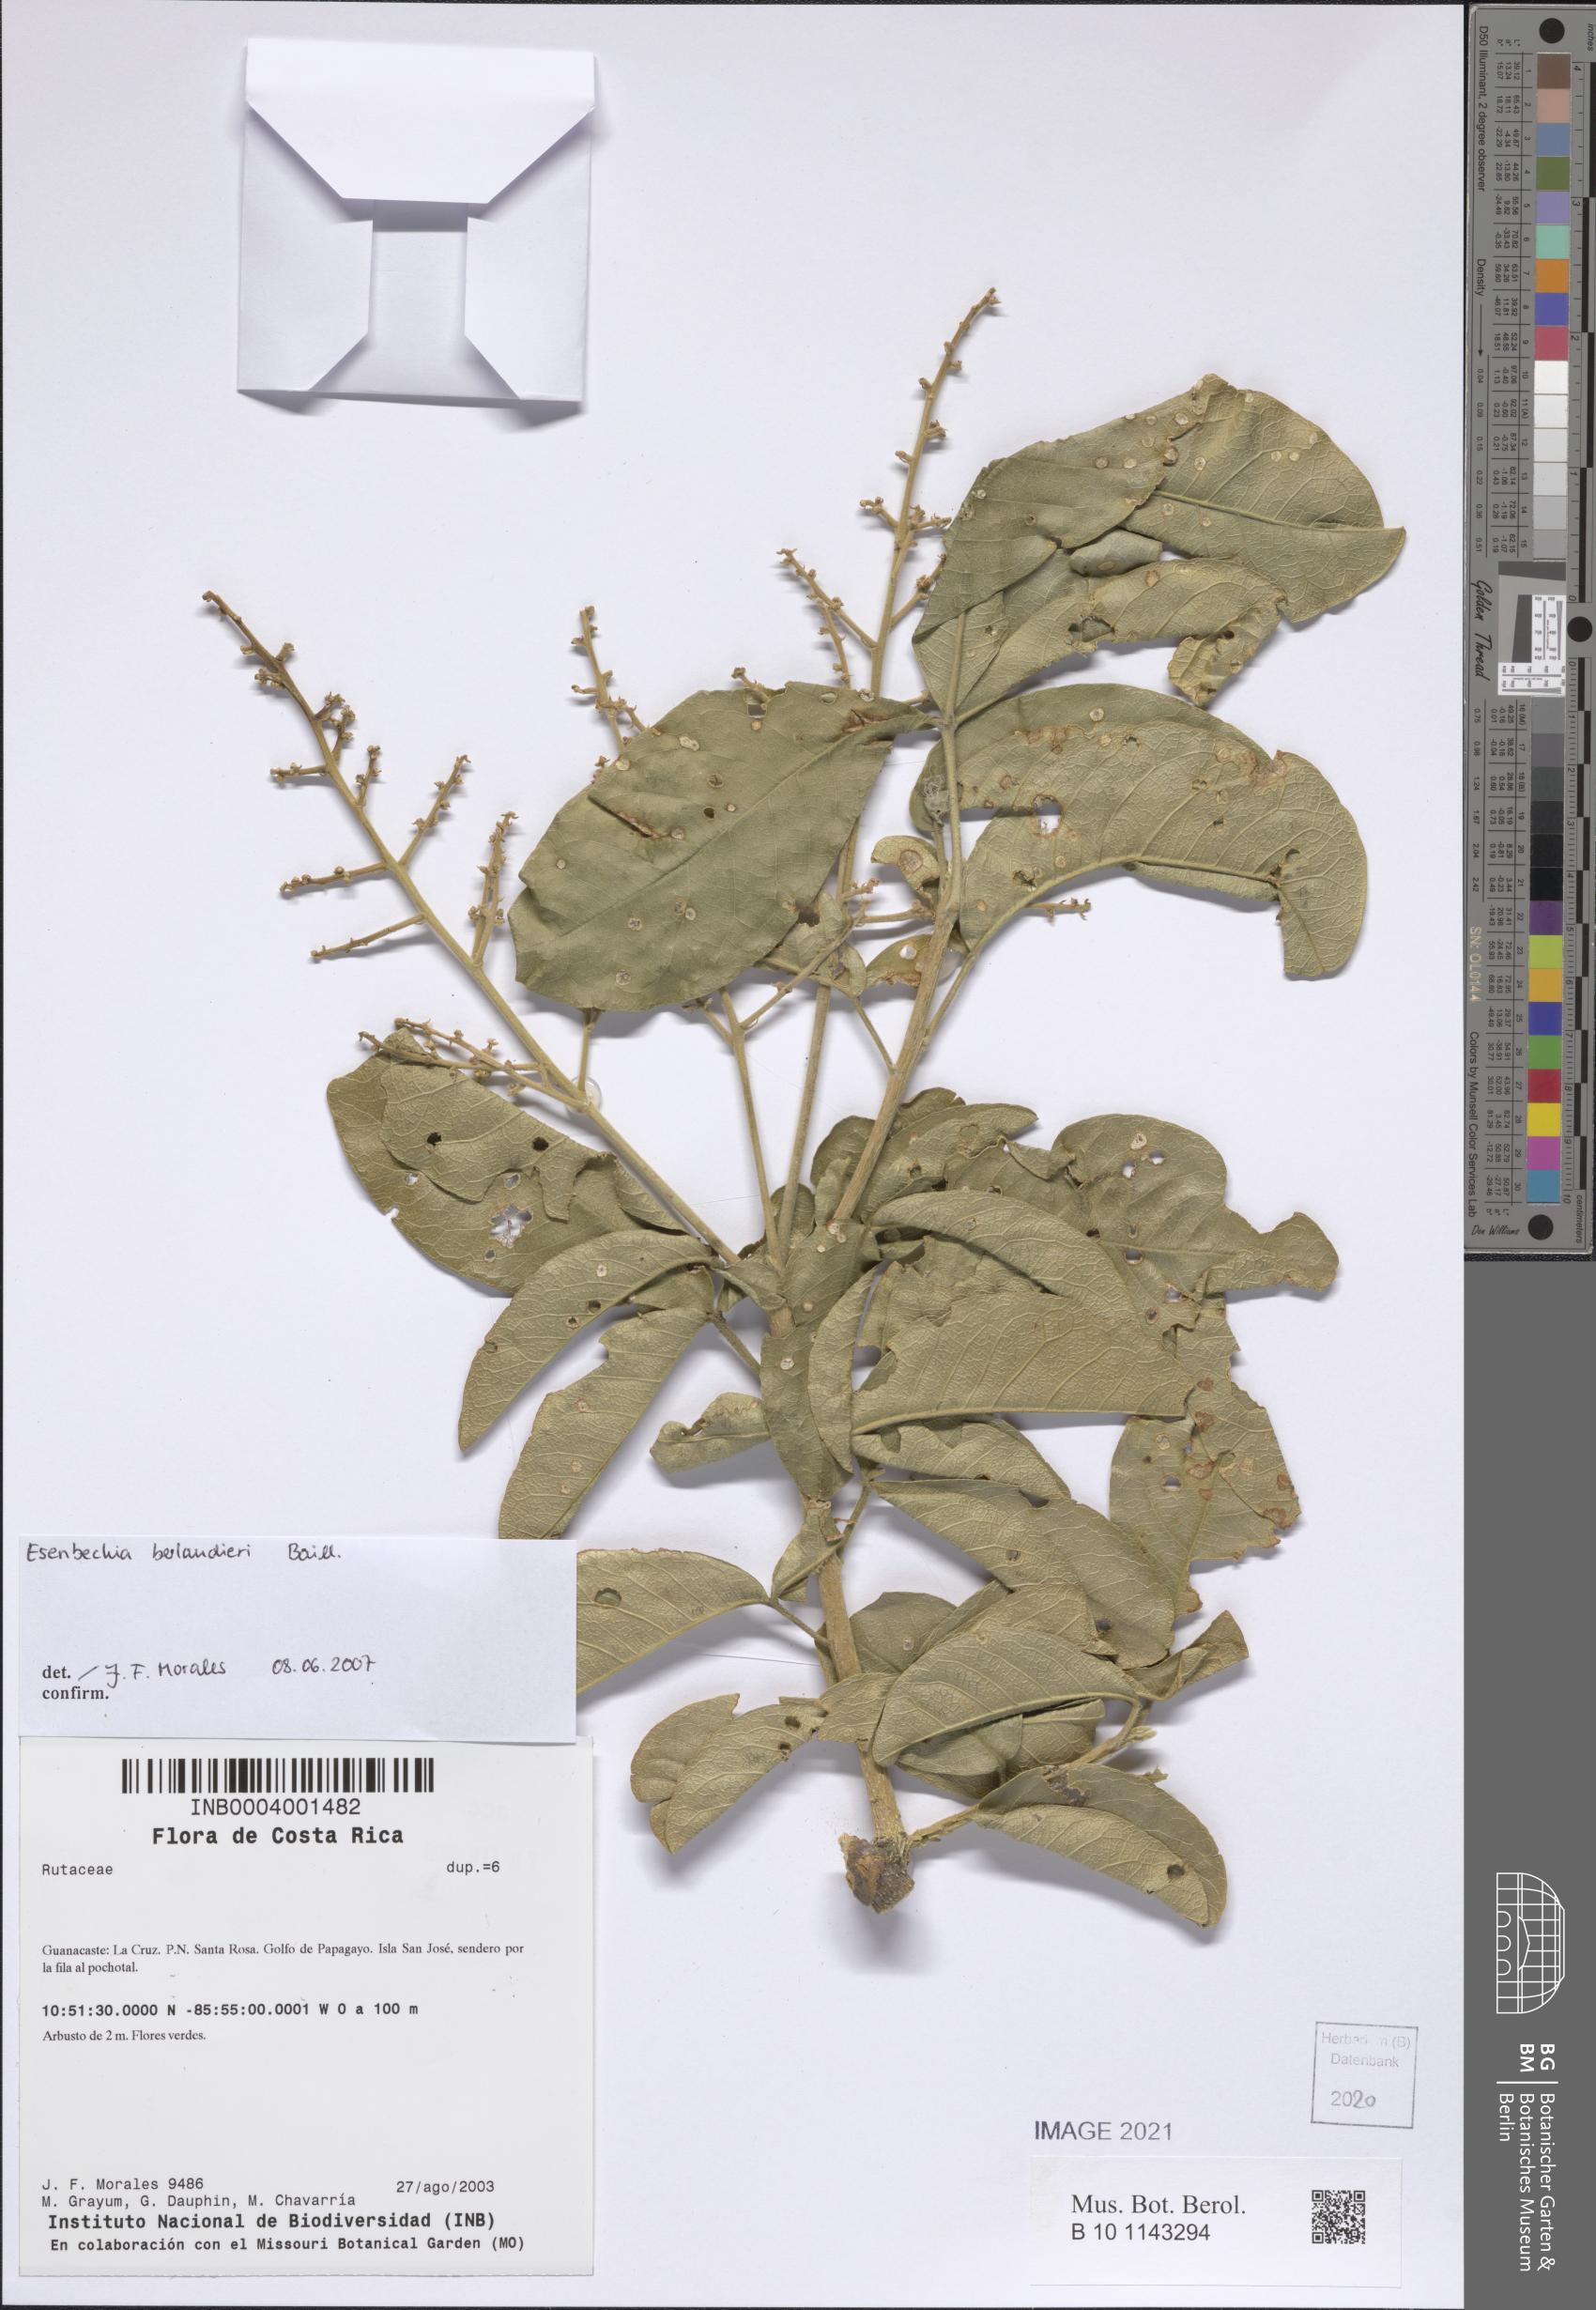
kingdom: Plantae
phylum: Tracheophyta
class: Magnoliopsida
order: Sapindales
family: Rutaceae
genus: Esenbeckia
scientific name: Esenbeckia berlandieri
